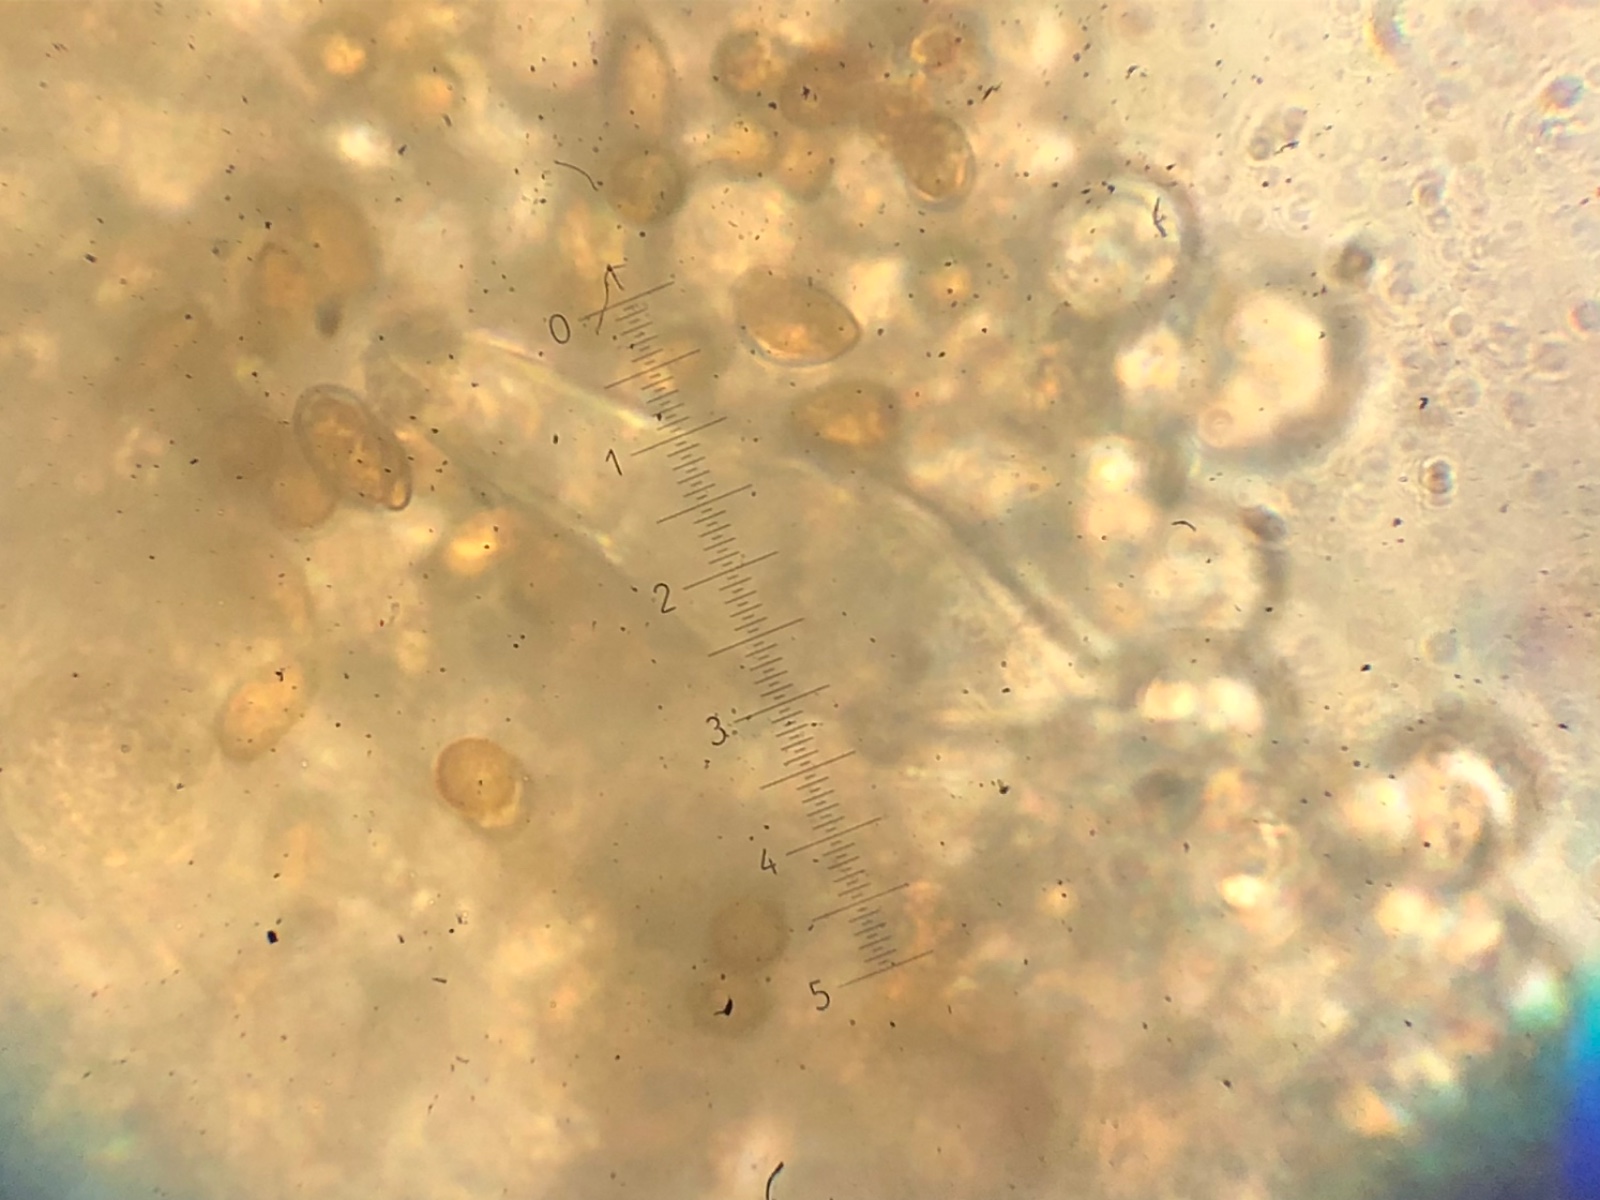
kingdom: Fungi
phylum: Basidiomycota
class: Agaricomycetes
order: Agaricales
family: Inocybaceae
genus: Inocybe
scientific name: Inocybe
